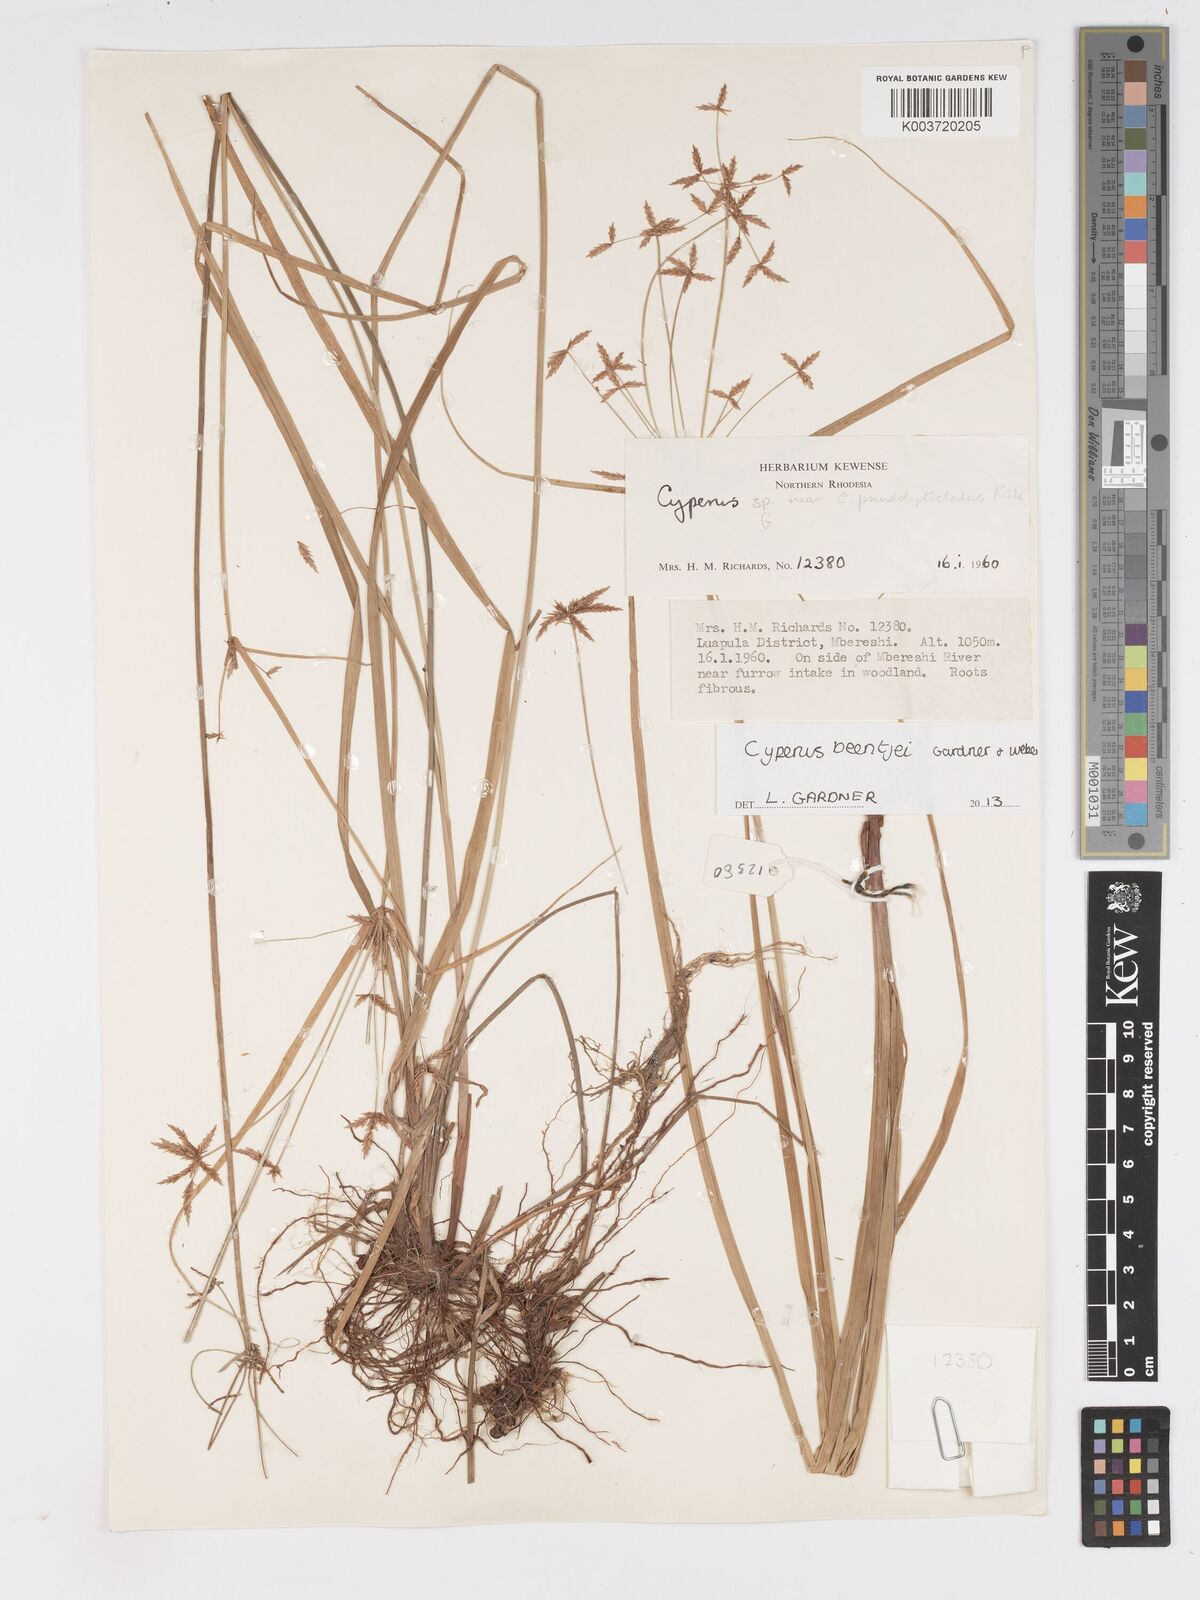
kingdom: Plantae
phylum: Tracheophyta
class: Liliopsida
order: Poales
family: Cyperaceae
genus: Cyperus
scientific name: Cyperus beentjei
